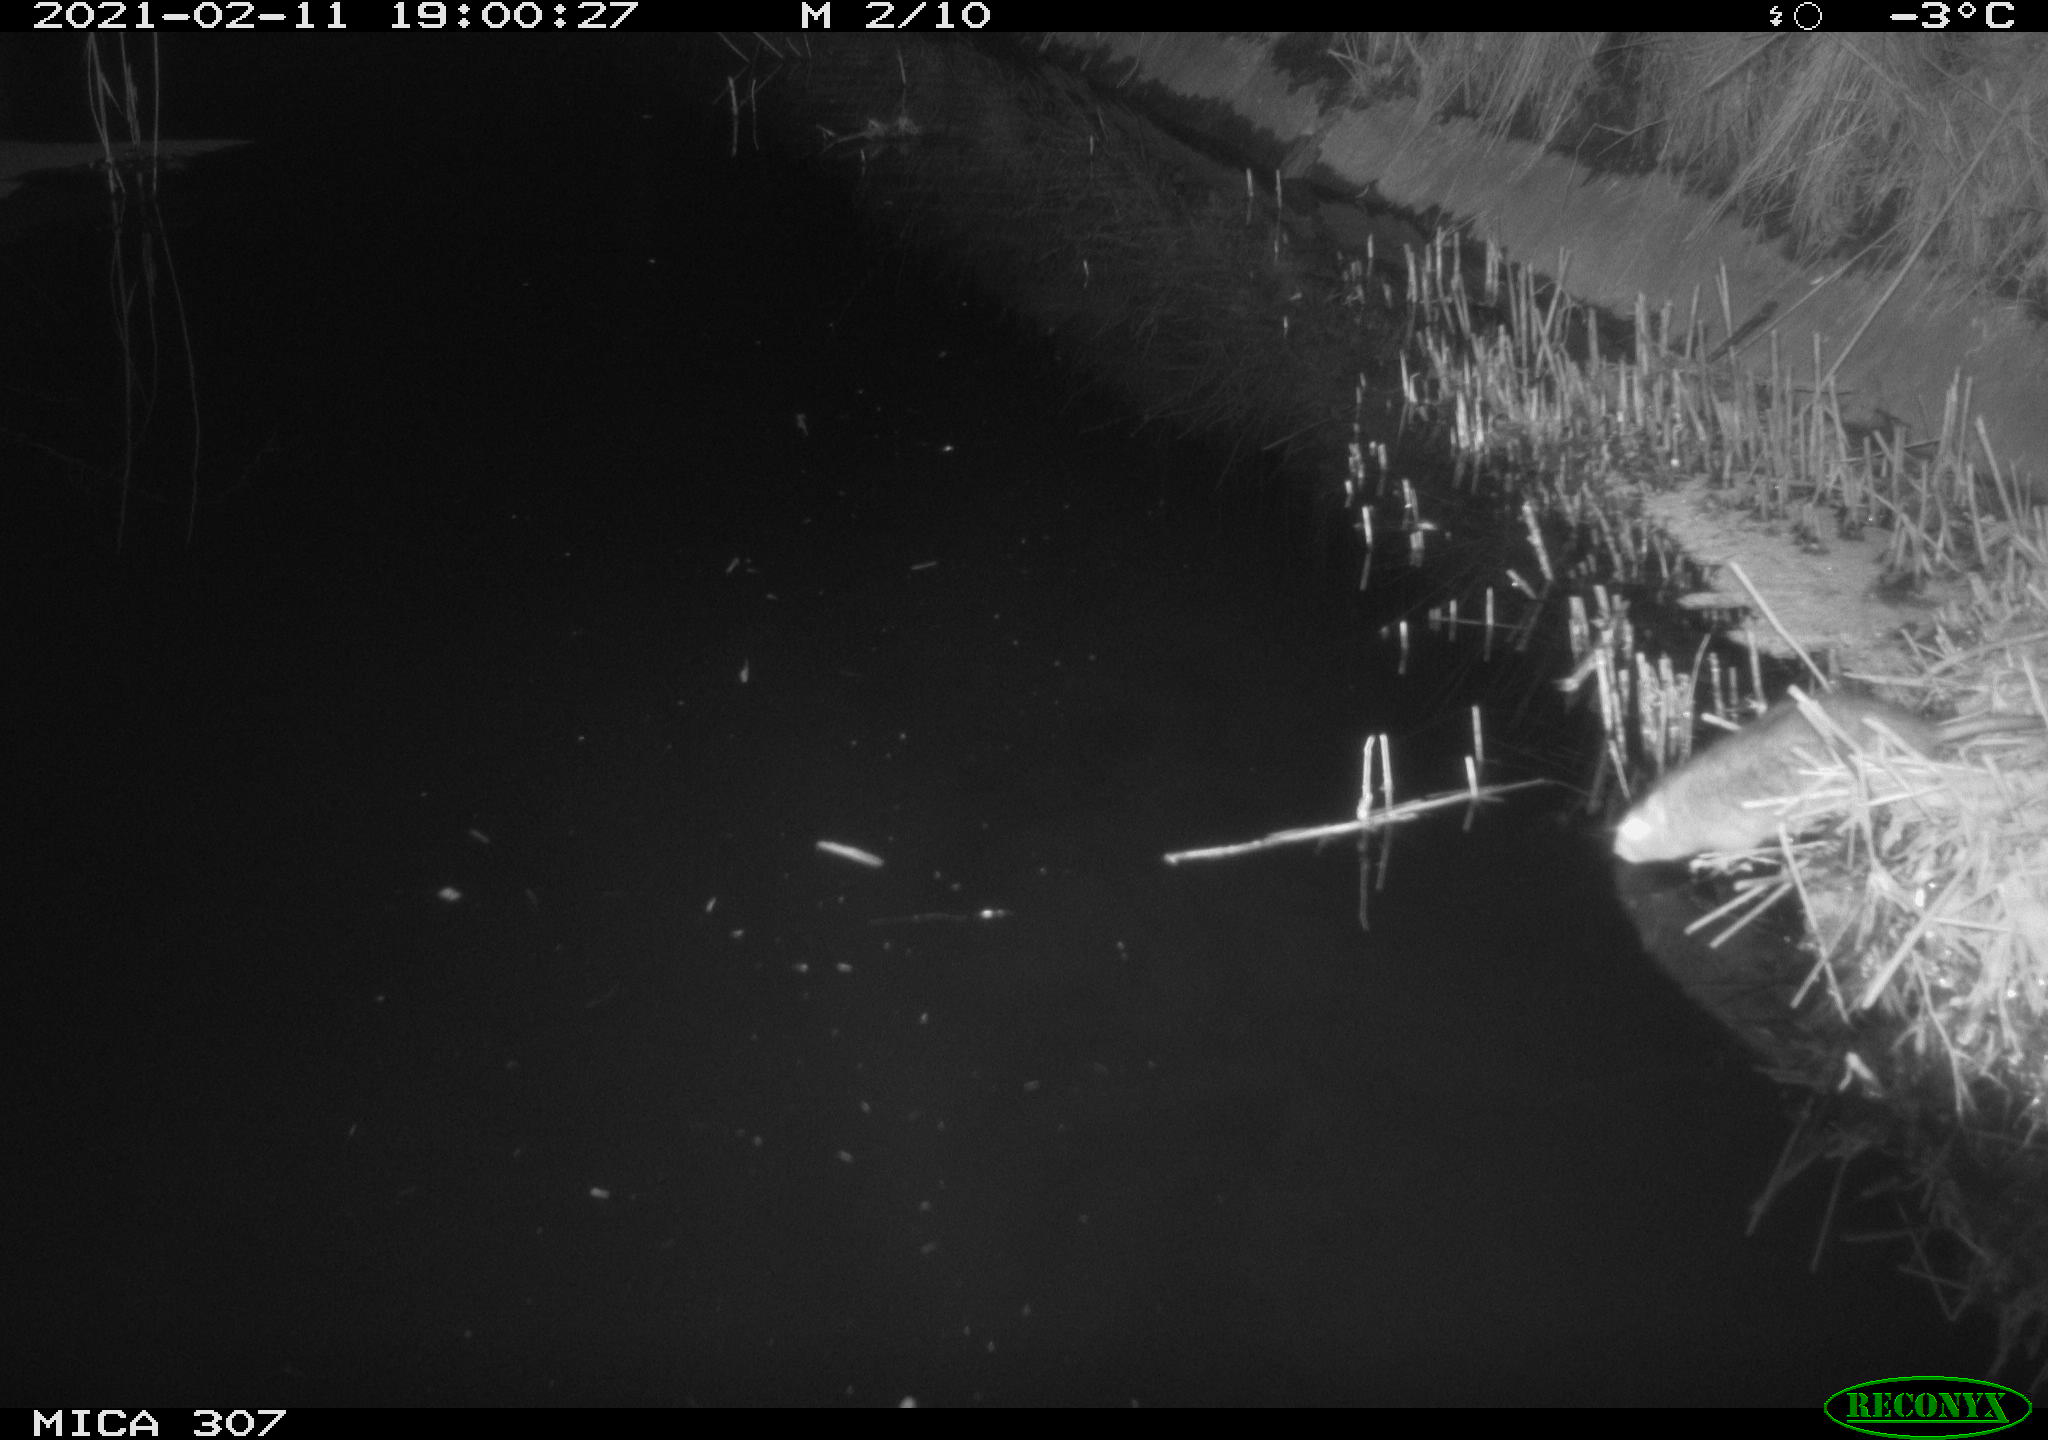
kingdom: Animalia
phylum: Chordata
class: Mammalia
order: Rodentia
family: Muridae
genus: Rattus
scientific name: Rattus norvegicus
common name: Brown rat
